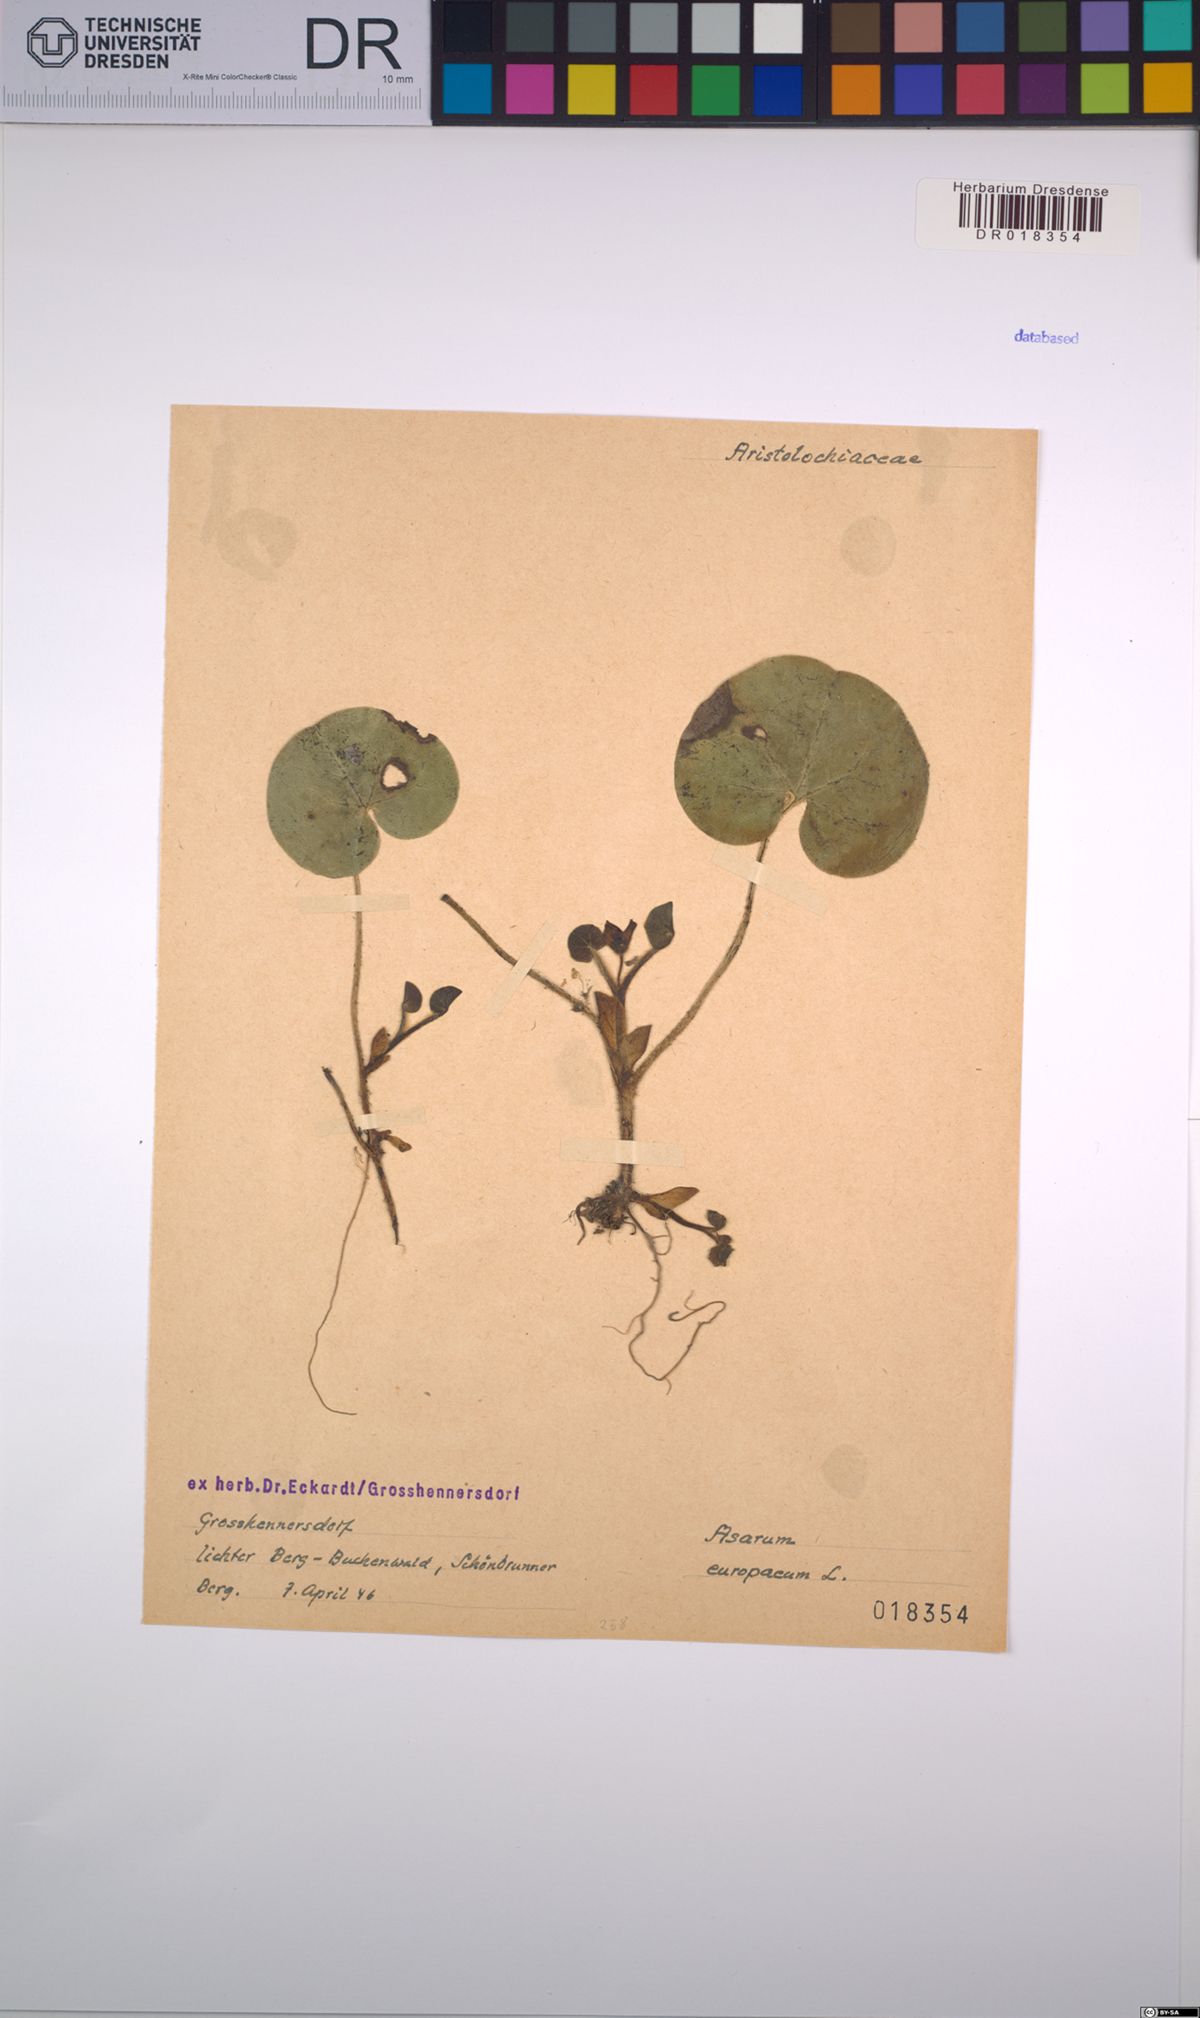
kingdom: Plantae
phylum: Tracheophyta
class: Magnoliopsida
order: Piperales
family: Aristolochiaceae
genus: Asarum
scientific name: Asarum europaeum
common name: Asarabacca
